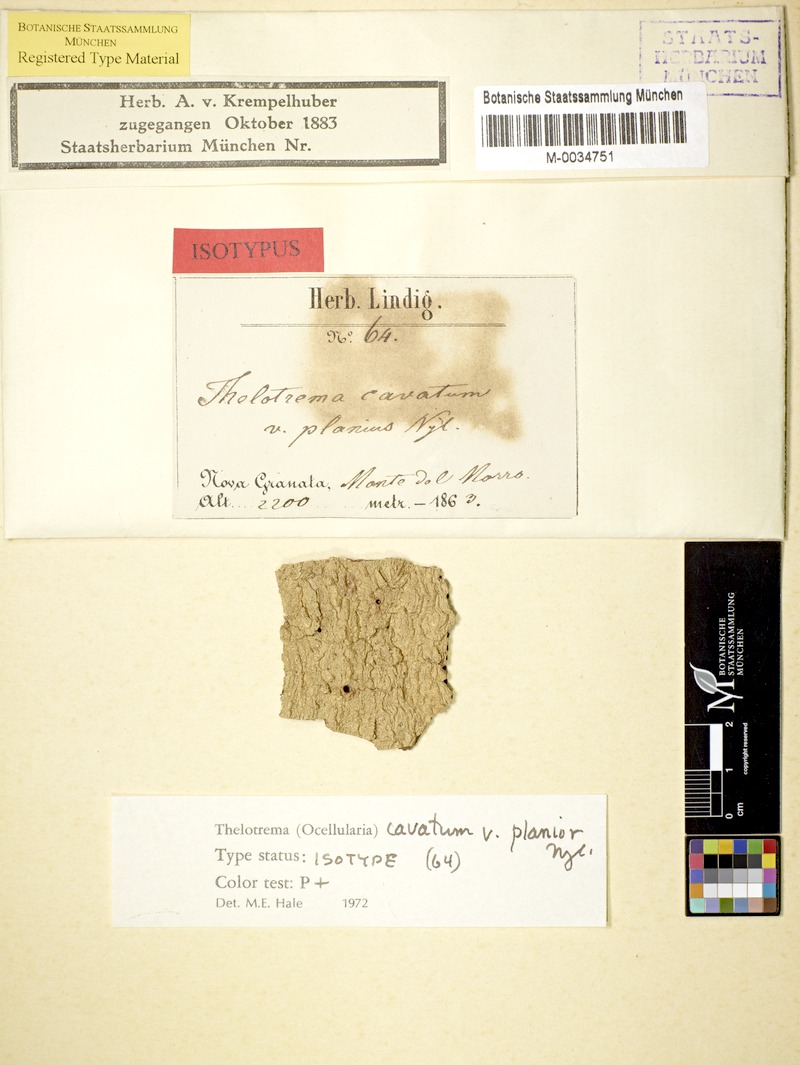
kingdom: Fungi
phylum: Ascomycota
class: Lecanoromycetes
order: Ostropales
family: Graphidaceae
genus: Ocellularia
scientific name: Ocellularia perforata
